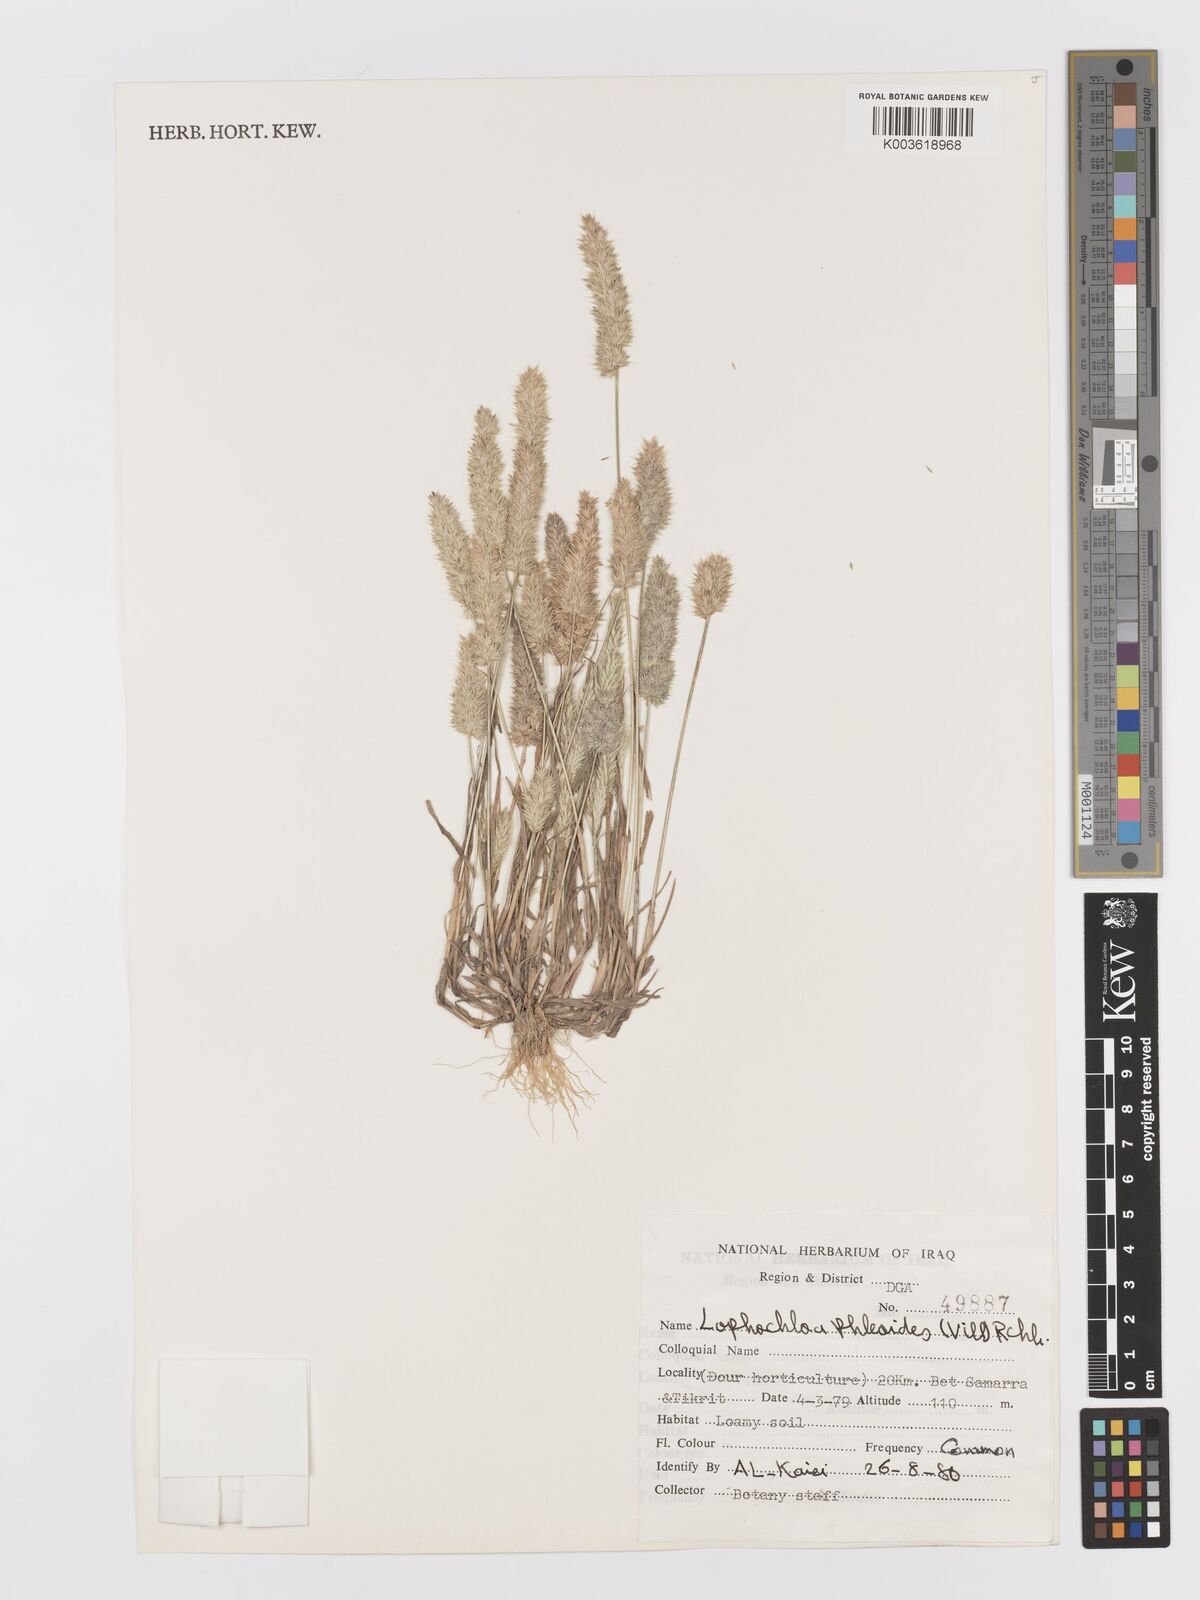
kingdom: Plantae
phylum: Tracheophyta
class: Liliopsida
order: Poales
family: Poaceae
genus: Rostraria
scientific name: Rostraria cristata
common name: Mediterranean hair-grass
